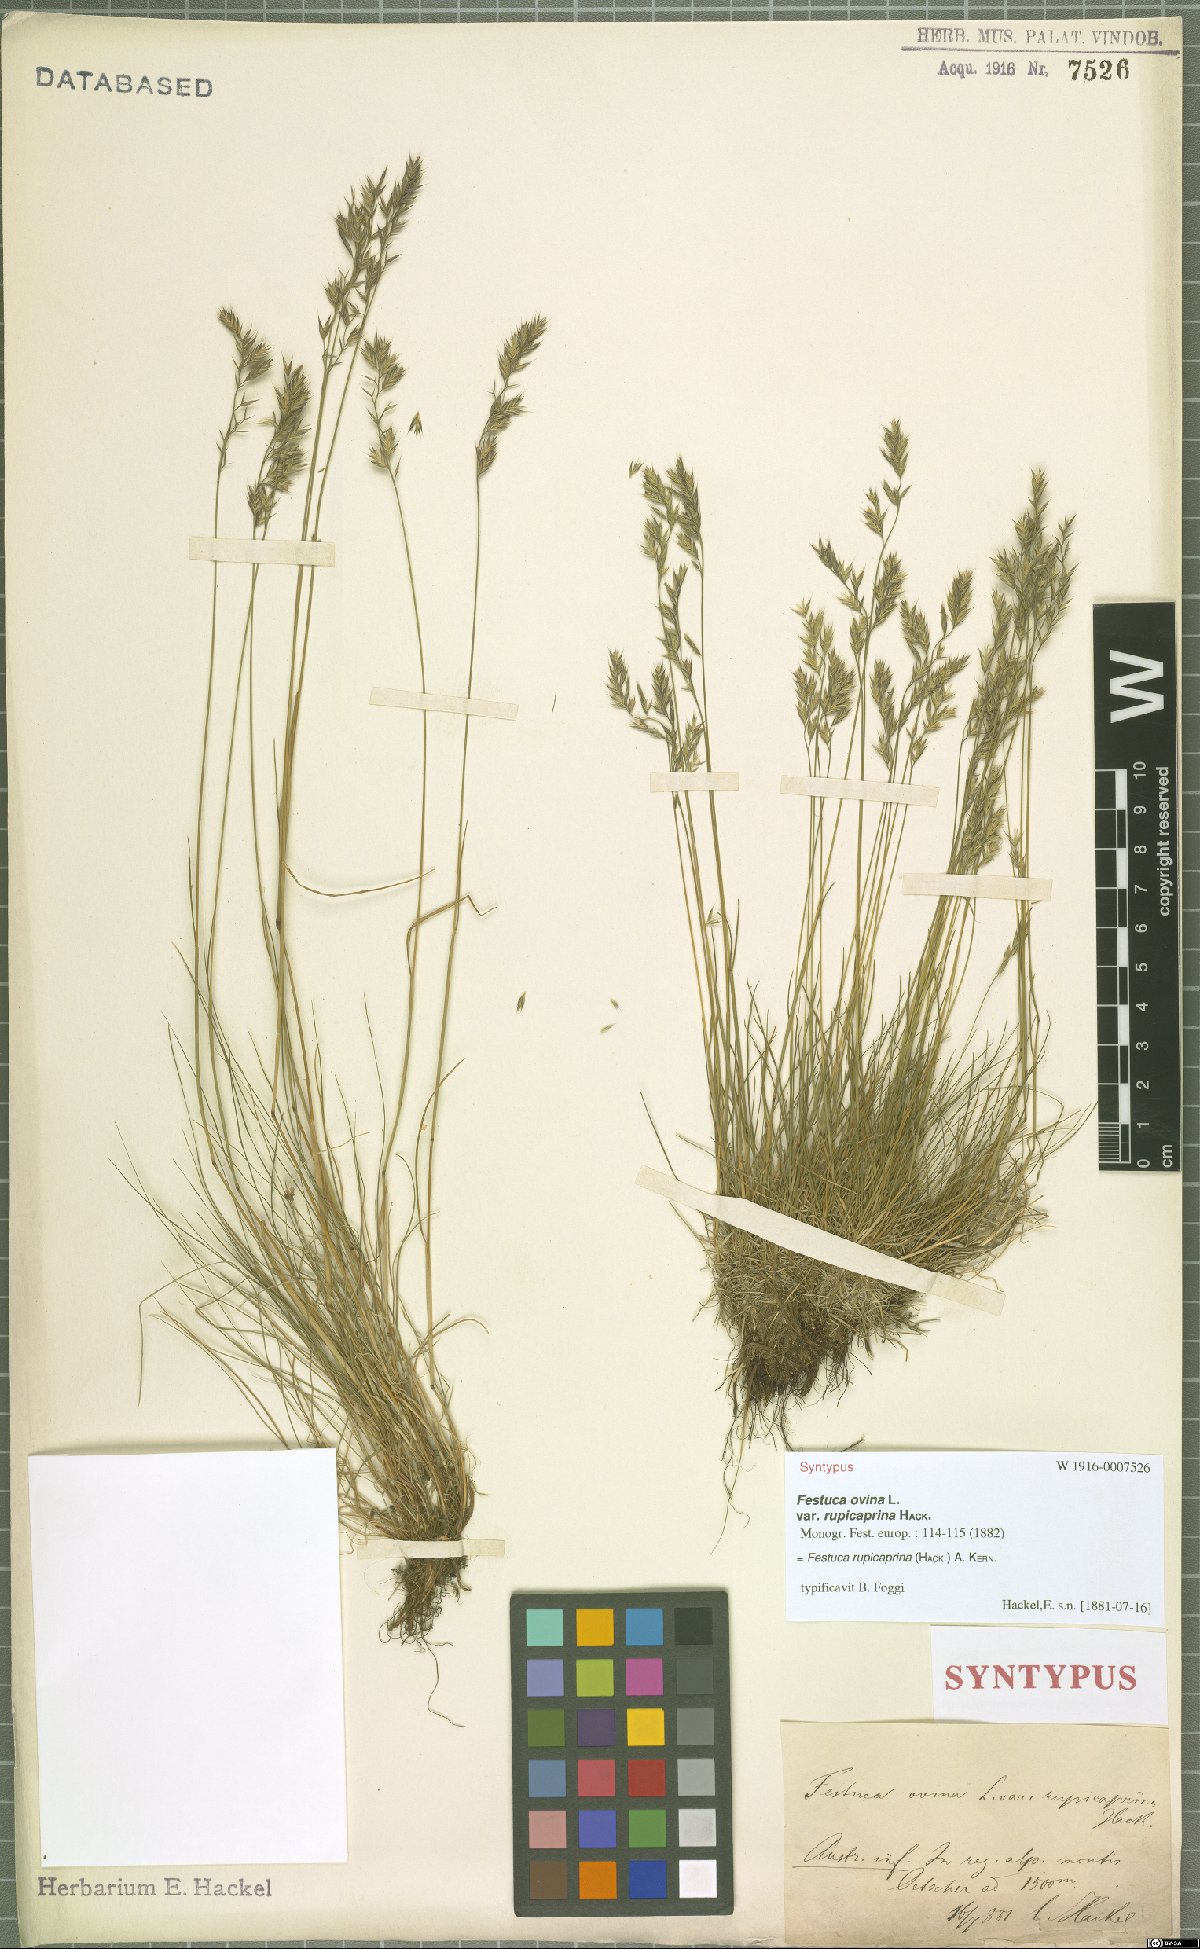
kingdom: Plantae
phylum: Tracheophyta
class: Liliopsida
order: Poales
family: Poaceae
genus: Festuca
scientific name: Festuca rupicaprina
